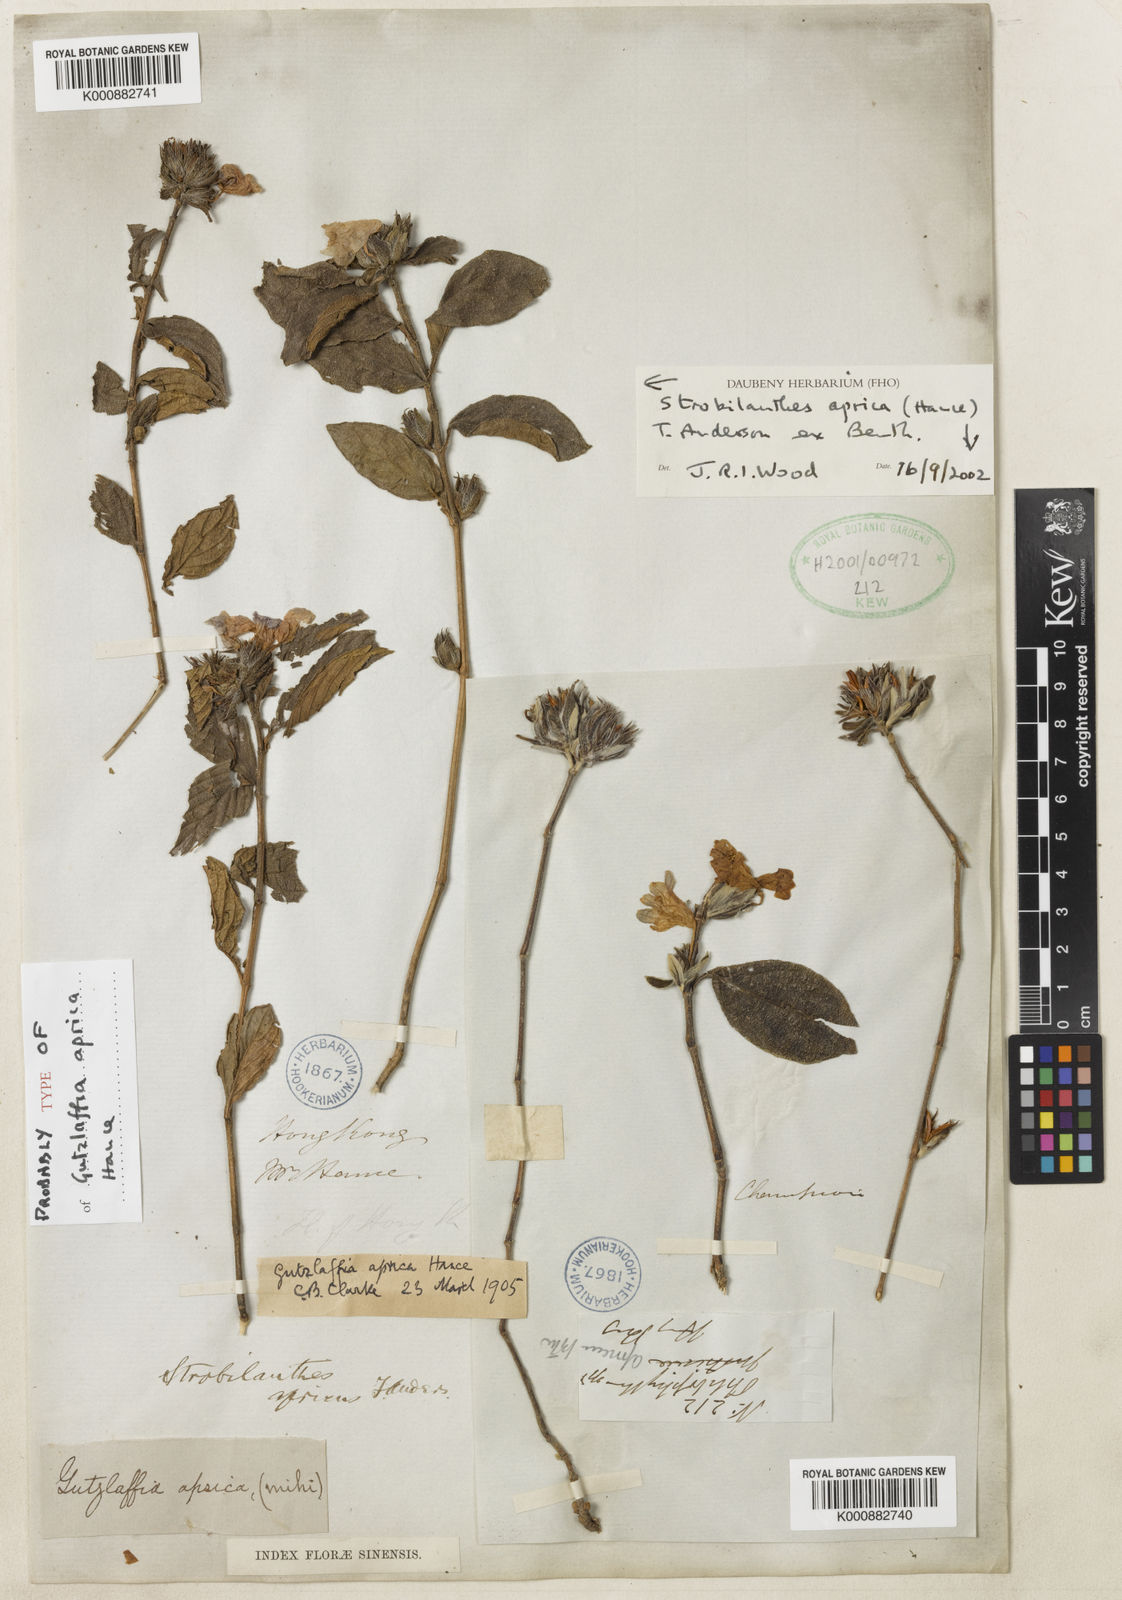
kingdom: Plantae
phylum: Tracheophyta
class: Magnoliopsida
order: Lamiales
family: Acanthaceae
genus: Strobilanthes
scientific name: Strobilanthes aprica
